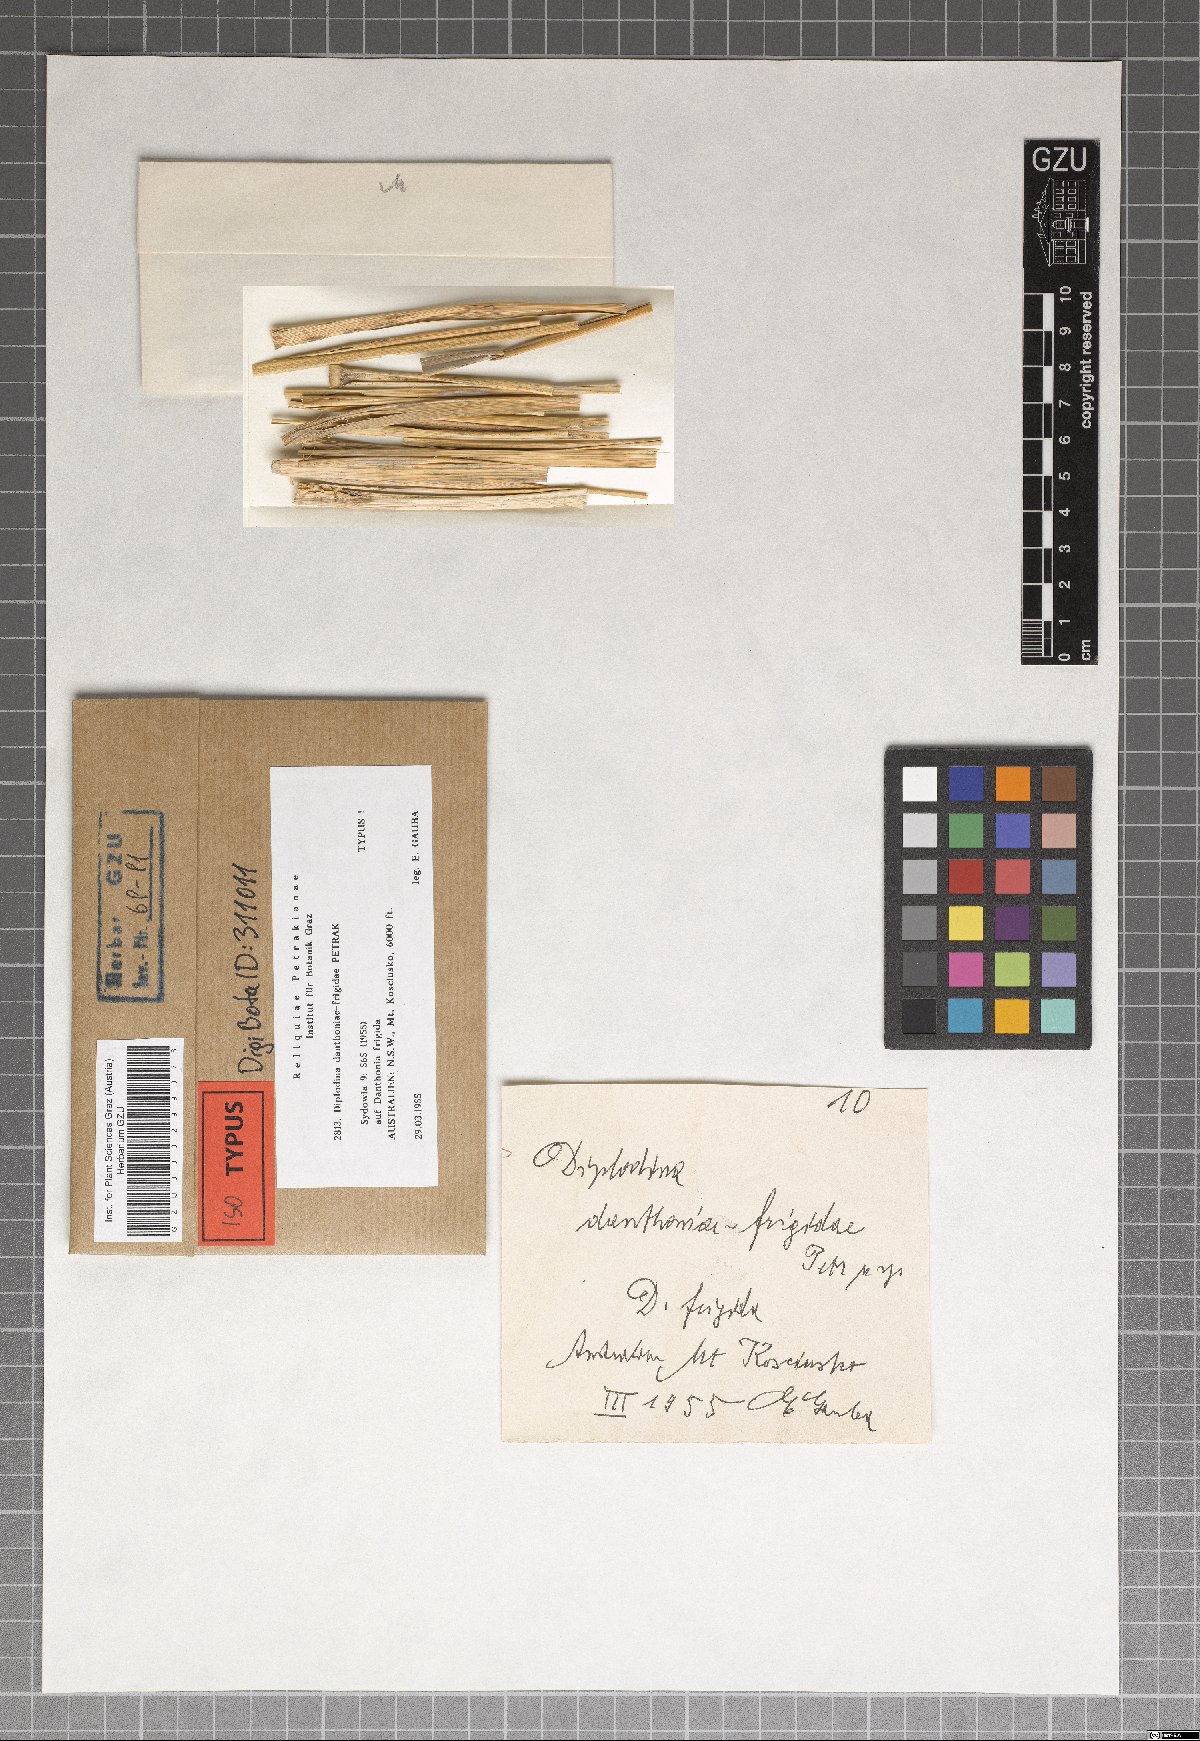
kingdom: Fungi
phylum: Ascomycota
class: Sordariomycetes
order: Diaporthales
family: Gnomoniaceae
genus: Diplodina
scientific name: Diplodina danthoniae-frigidae
